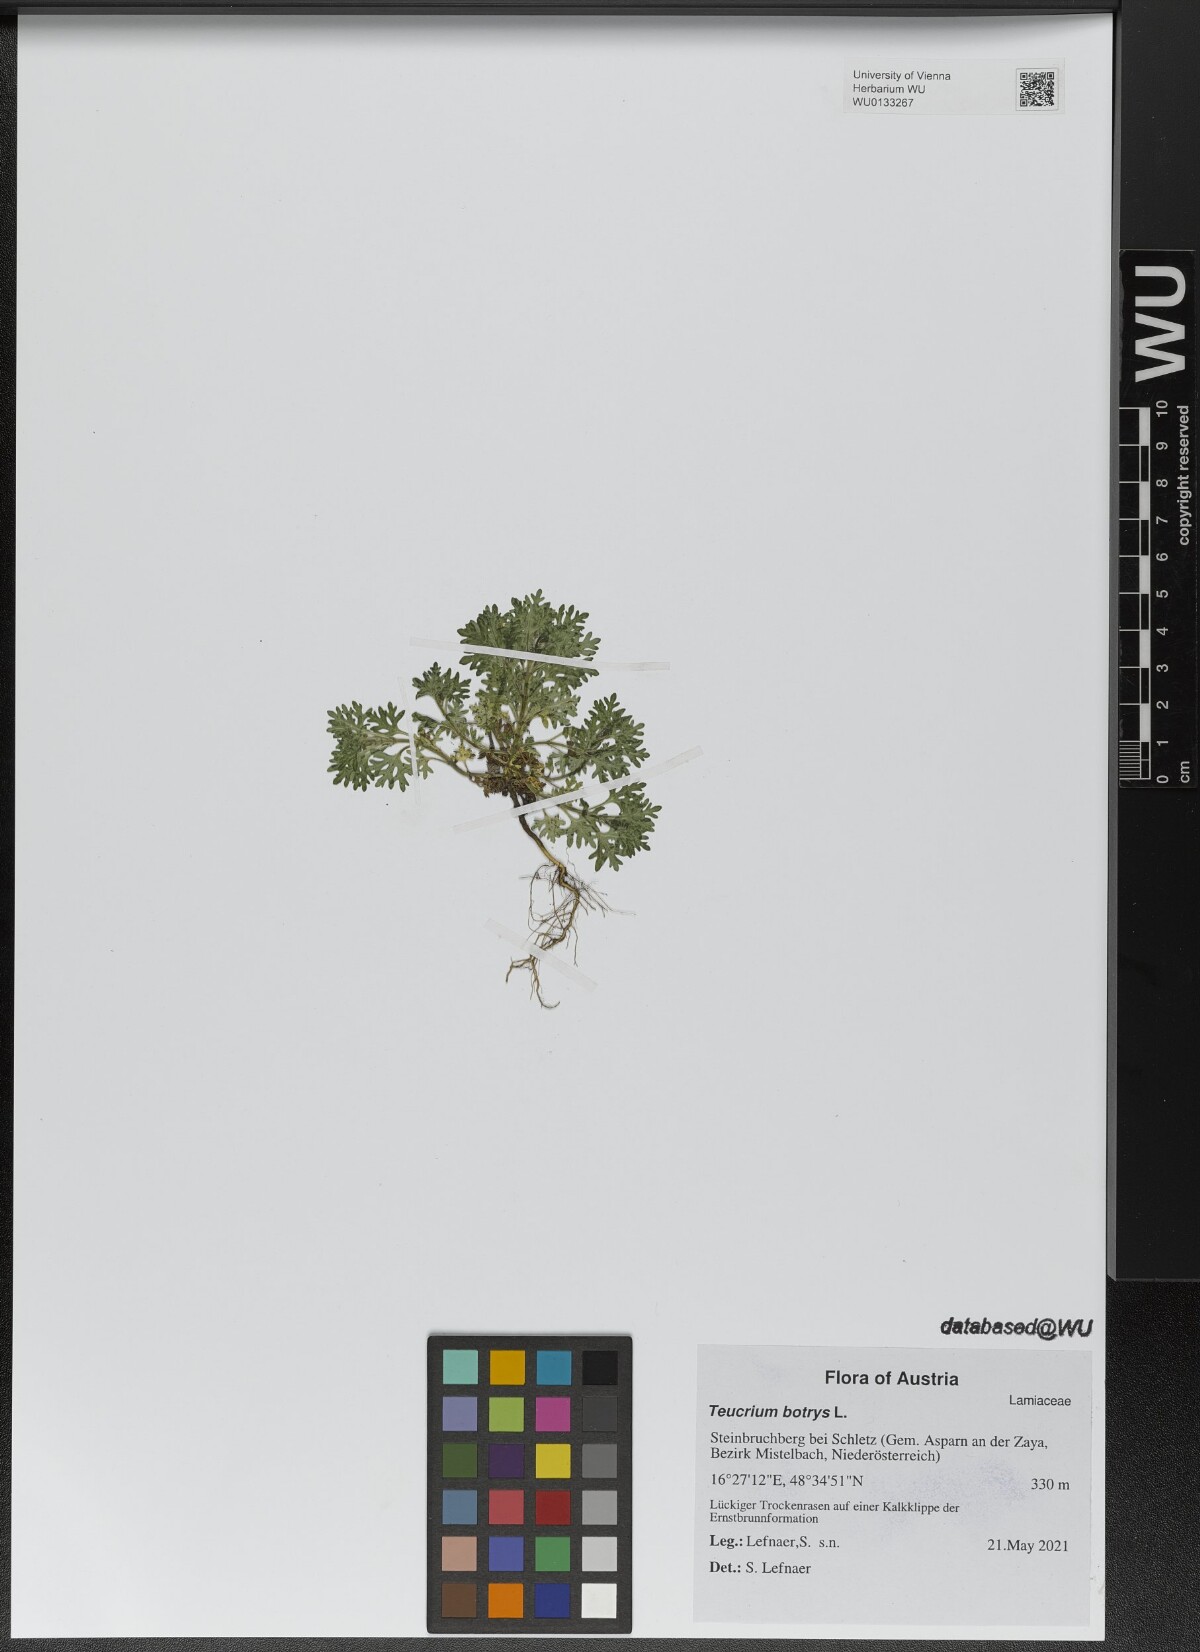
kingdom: Plantae
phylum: Tracheophyta
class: Magnoliopsida
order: Lamiales
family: Lamiaceae
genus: Teucrium
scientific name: Teucrium botrys
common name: Cut-leaved germander
